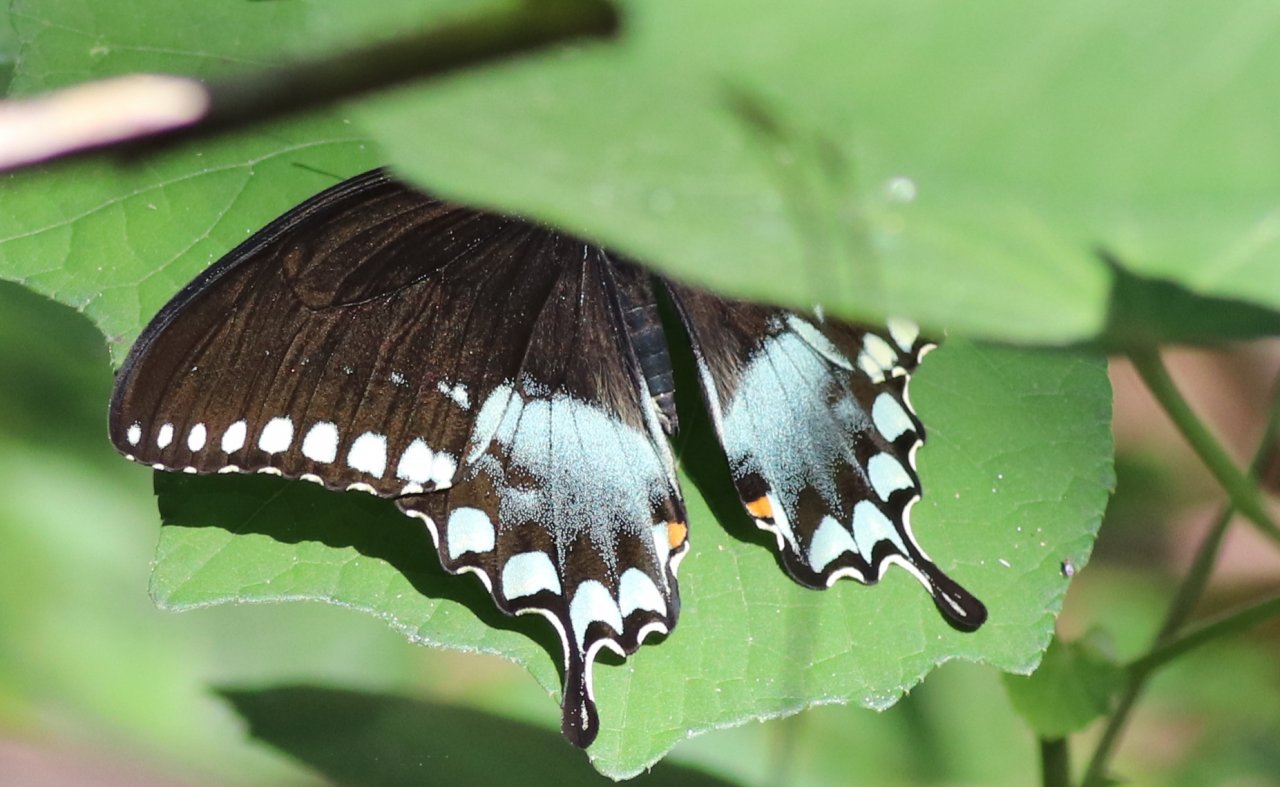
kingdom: Animalia
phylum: Arthropoda
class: Insecta
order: Lepidoptera
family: Papilionidae
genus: Pterourus
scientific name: Pterourus troilus
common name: Spicebush Swallowtail
